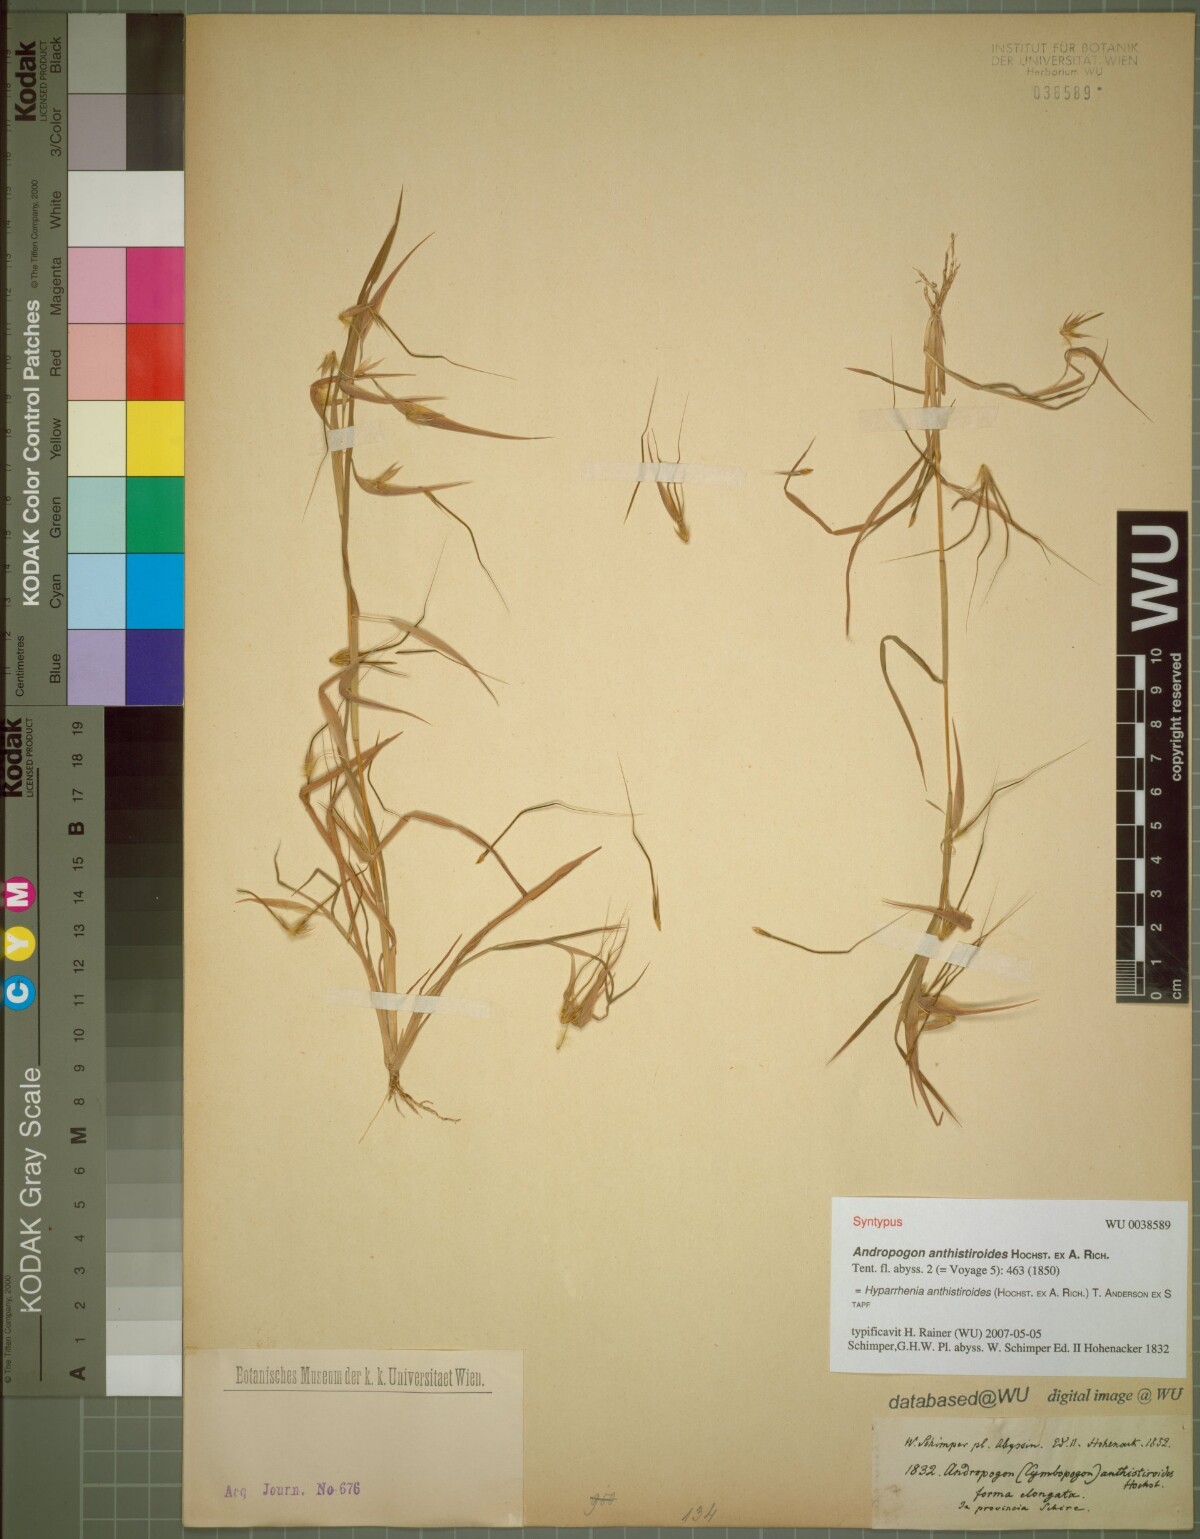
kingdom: Plantae
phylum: Tracheophyta
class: Liliopsida
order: Poales
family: Poaceae
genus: Hyparrhenia
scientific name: Hyparrhenia anthistirioides
